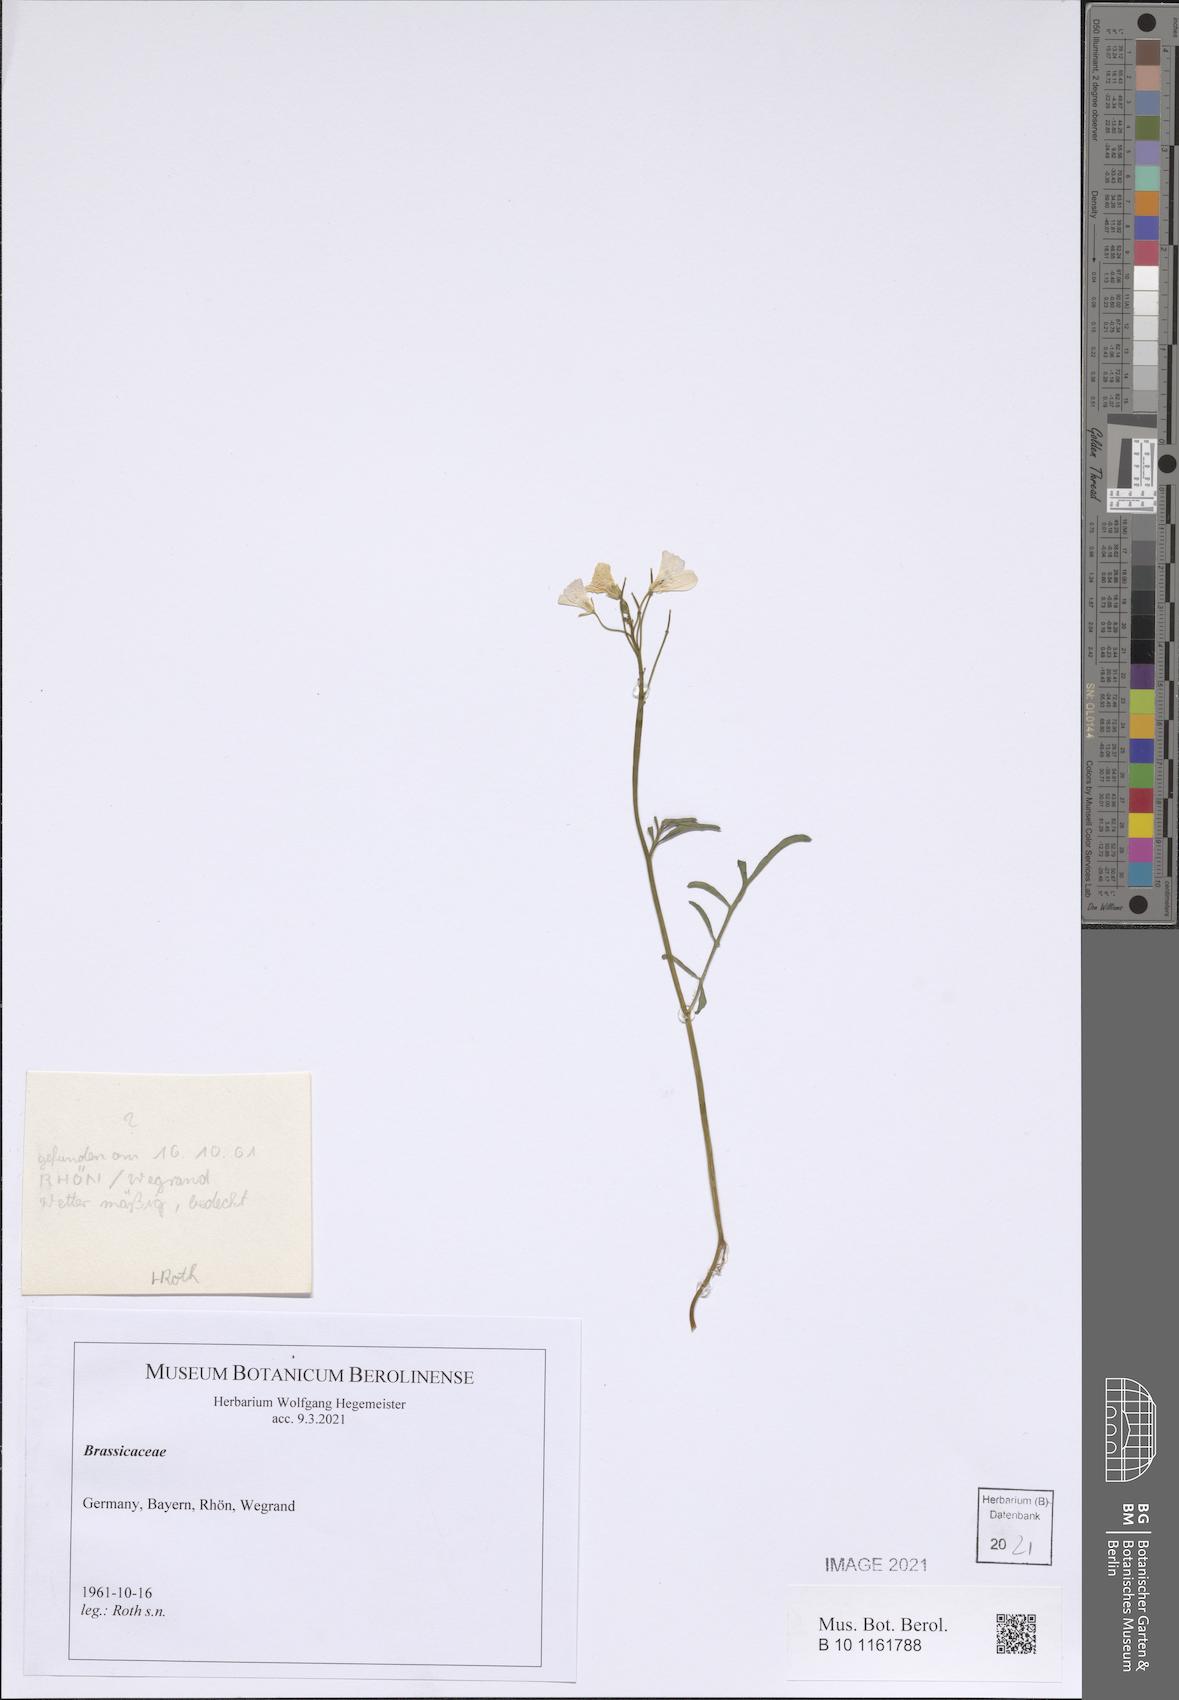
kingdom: Plantae
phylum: Tracheophyta
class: Magnoliopsida
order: Brassicales
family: Brassicaceae
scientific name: Brassicaceae
